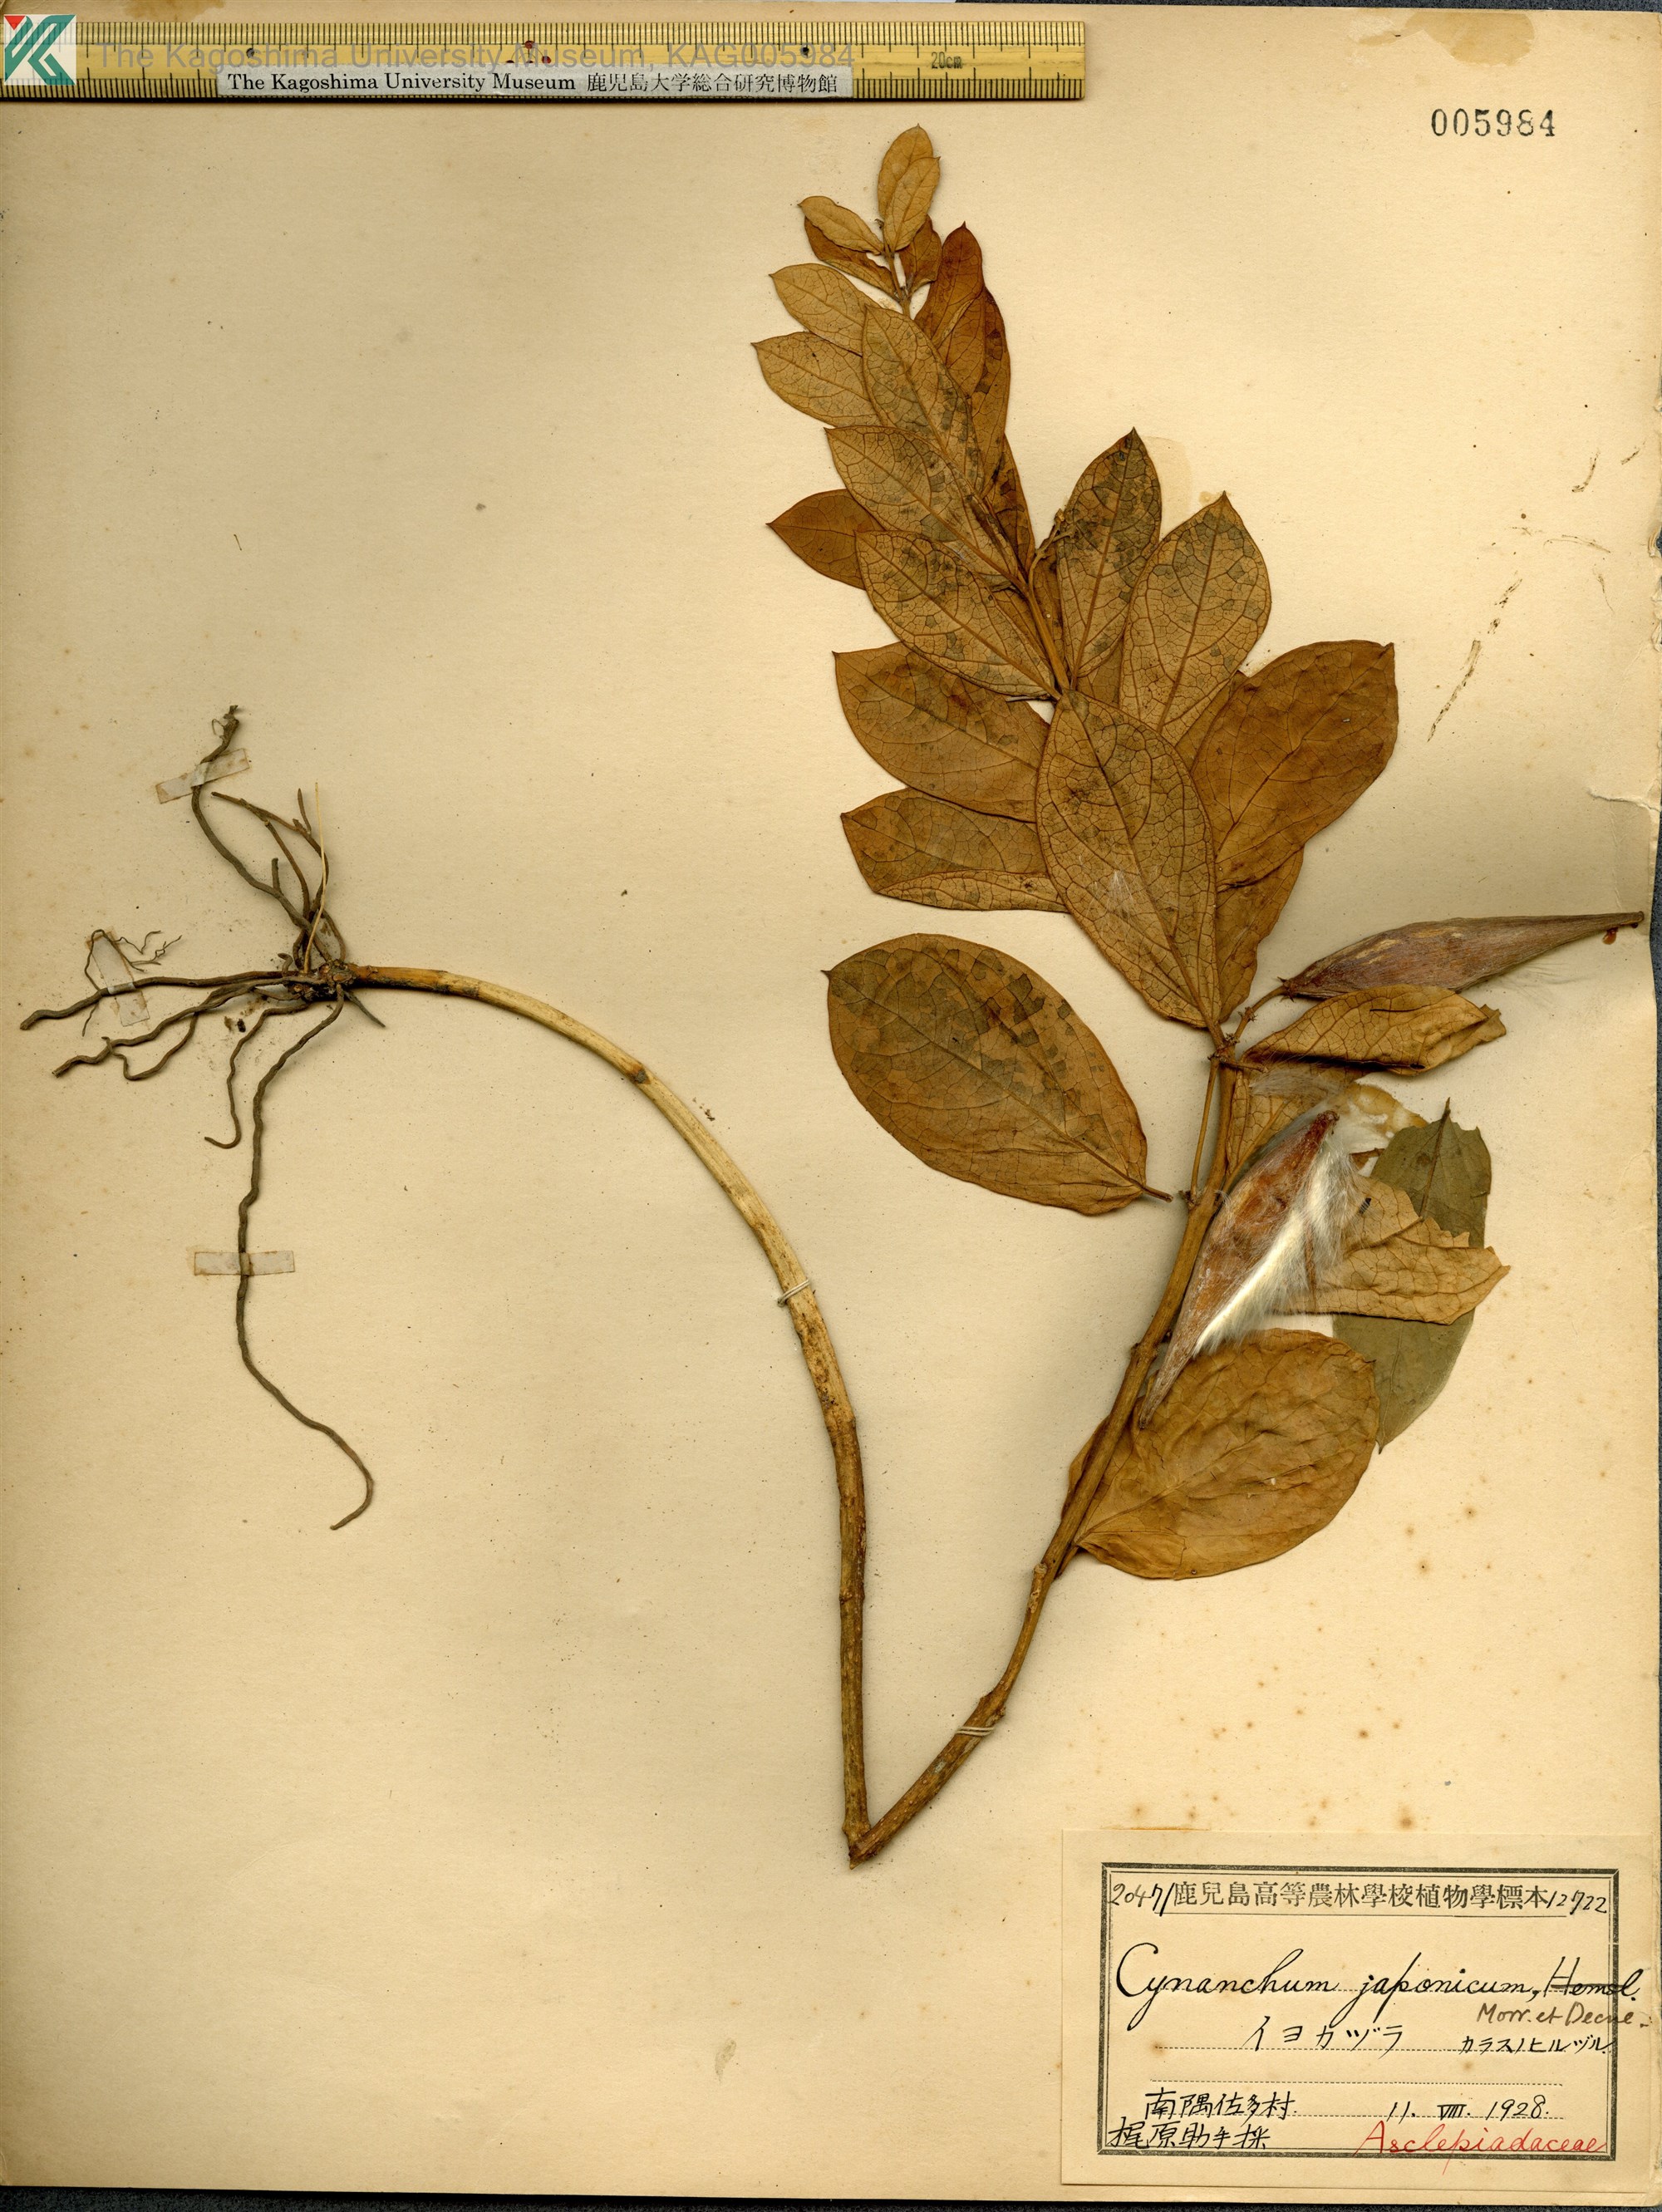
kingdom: Plantae
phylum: Tracheophyta
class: Magnoliopsida
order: Gentianales
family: Apocynaceae
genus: Vincetoxicum
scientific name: Vincetoxicum japonicum
